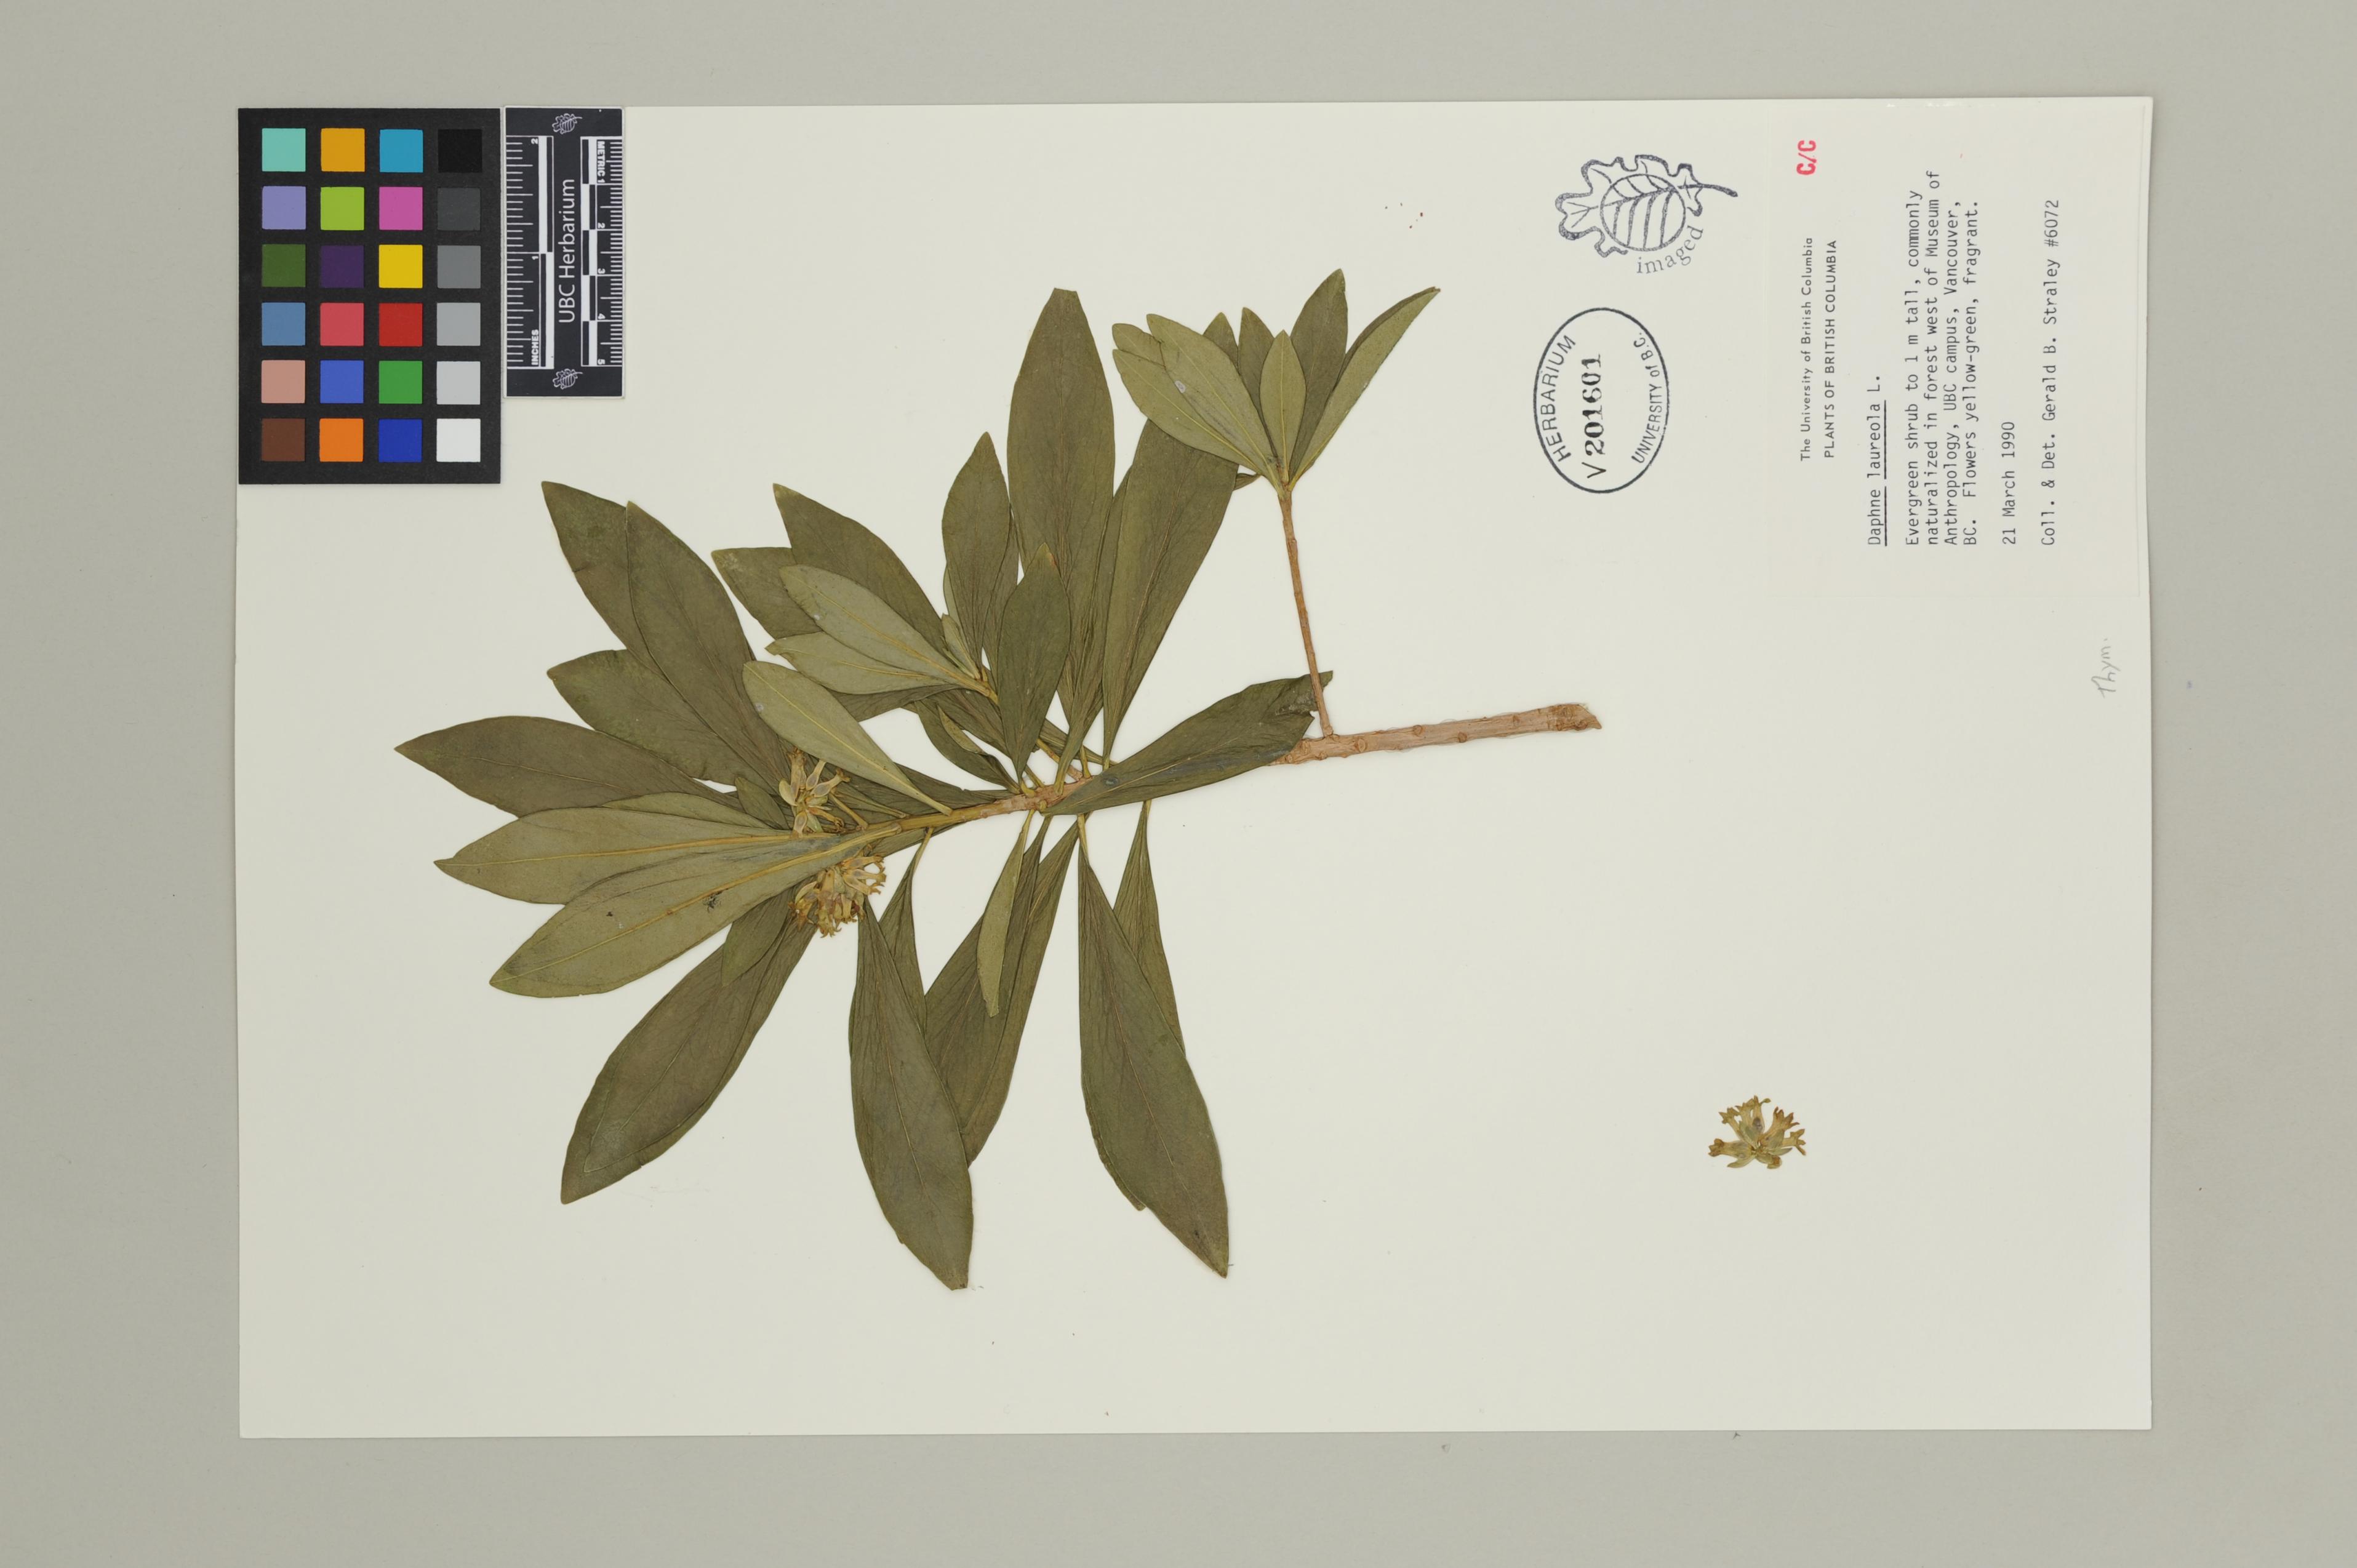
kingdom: Plantae
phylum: Tracheophyta
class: Magnoliopsida
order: Malvales
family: Thymelaeaceae
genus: Daphne
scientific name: Daphne laureola
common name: Spurge-laurel
